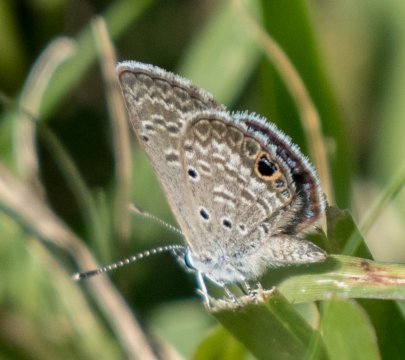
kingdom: Animalia
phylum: Arthropoda
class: Insecta
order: Lepidoptera
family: Lycaenidae
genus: Hemiargus
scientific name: Hemiargus ceraunus
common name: Ceraunus Blue
